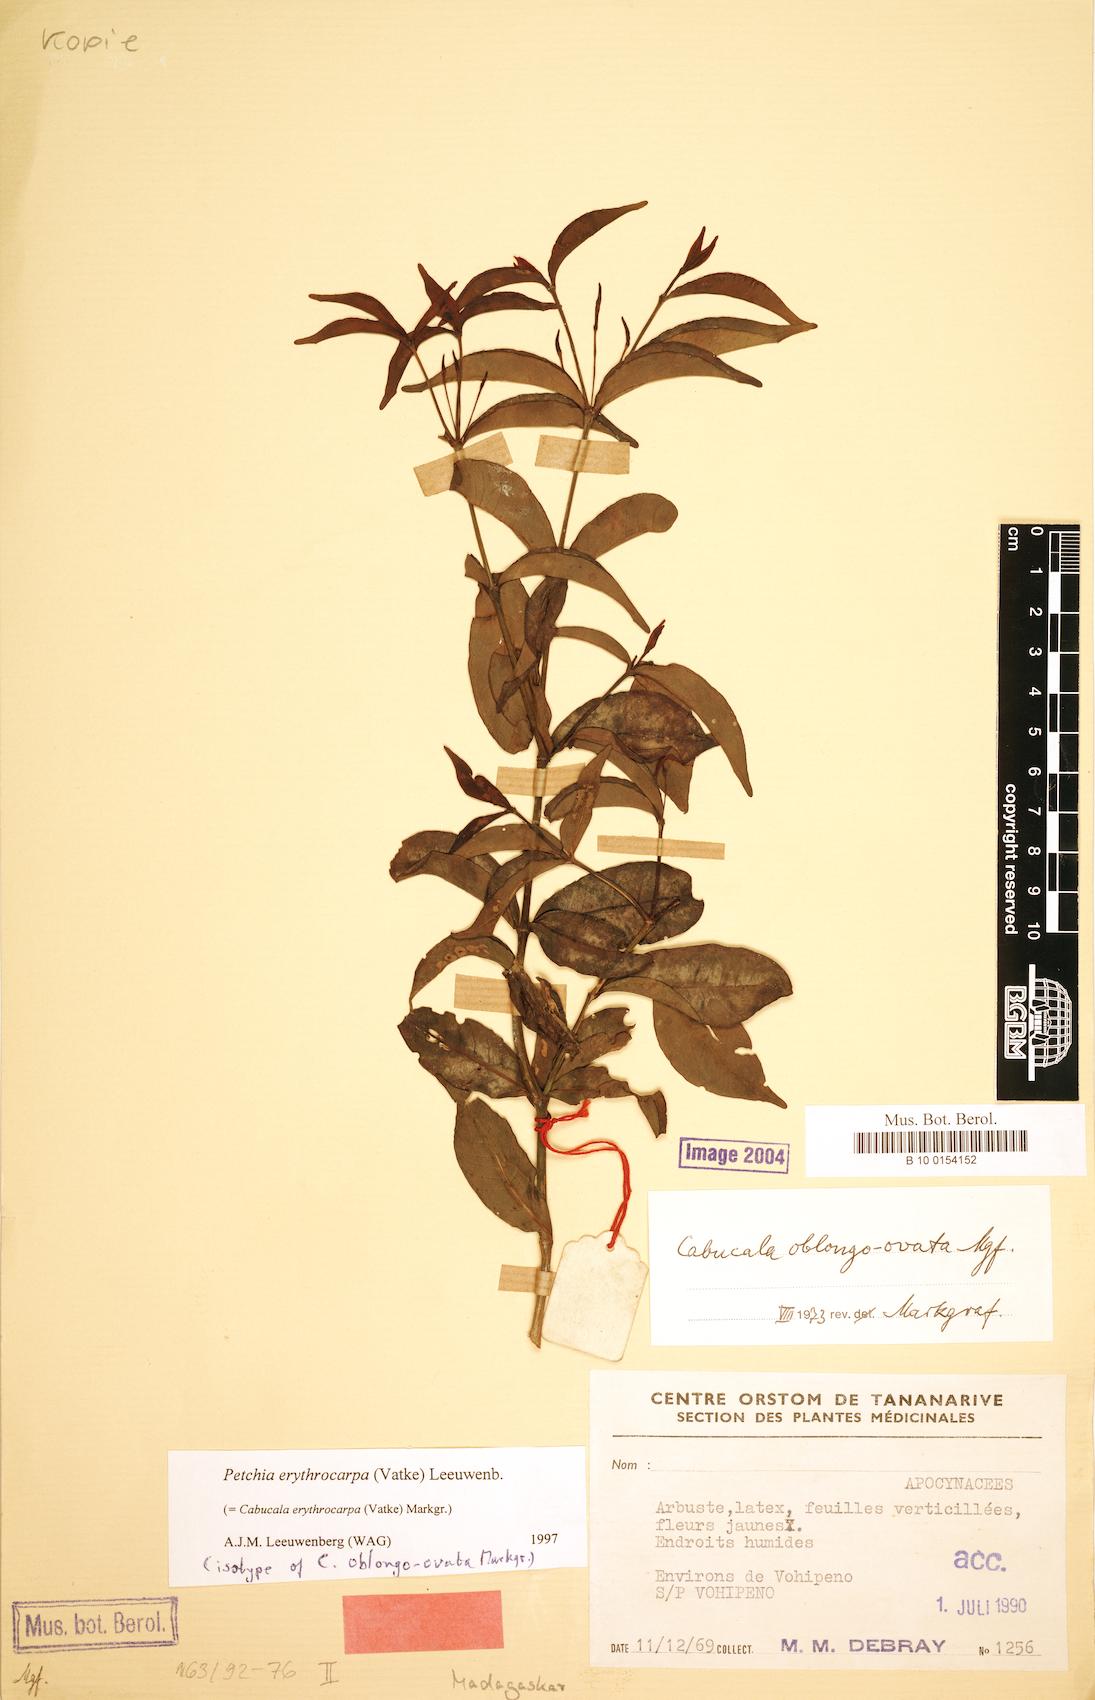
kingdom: Plantae
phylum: Tracheophyta
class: Magnoliopsida
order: Gentianales
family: Apocynaceae
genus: Petchia
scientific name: Petchia erythrocarpa
